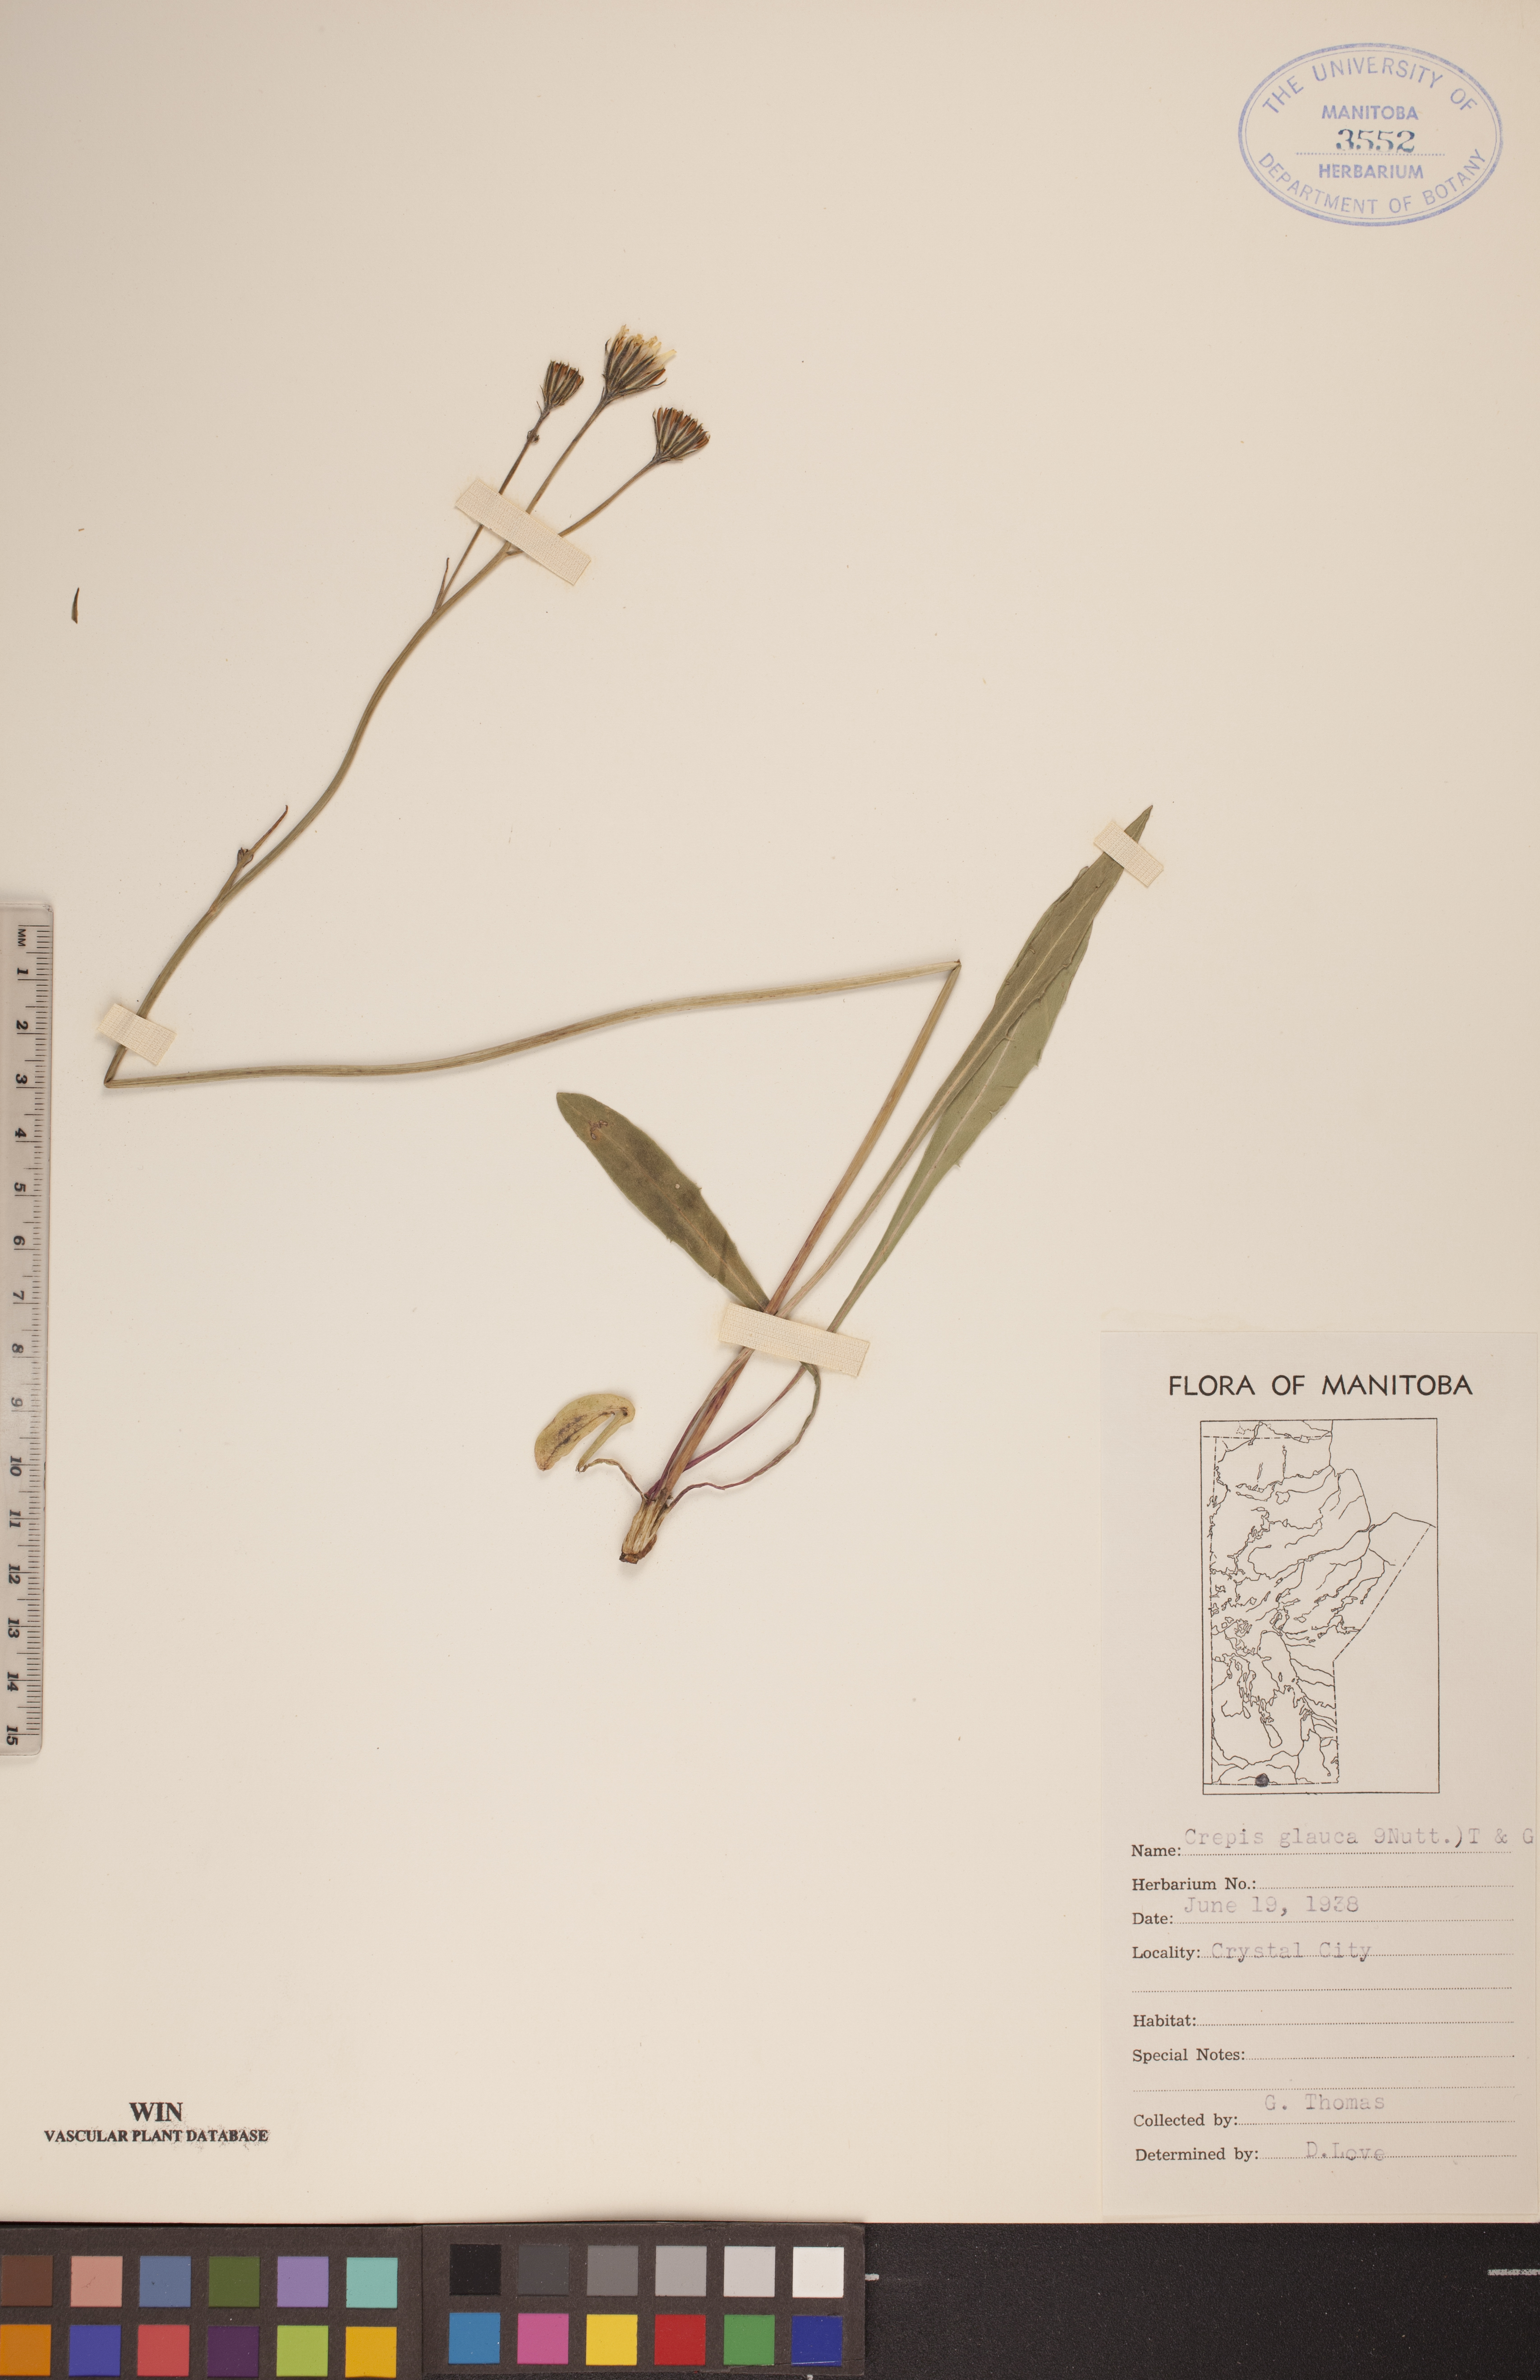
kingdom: Plantae
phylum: Tracheophyta
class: Magnoliopsida
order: Asterales
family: Asteraceae
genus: Crepis
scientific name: Crepis runcinata
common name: Dandelion hawksbeard
